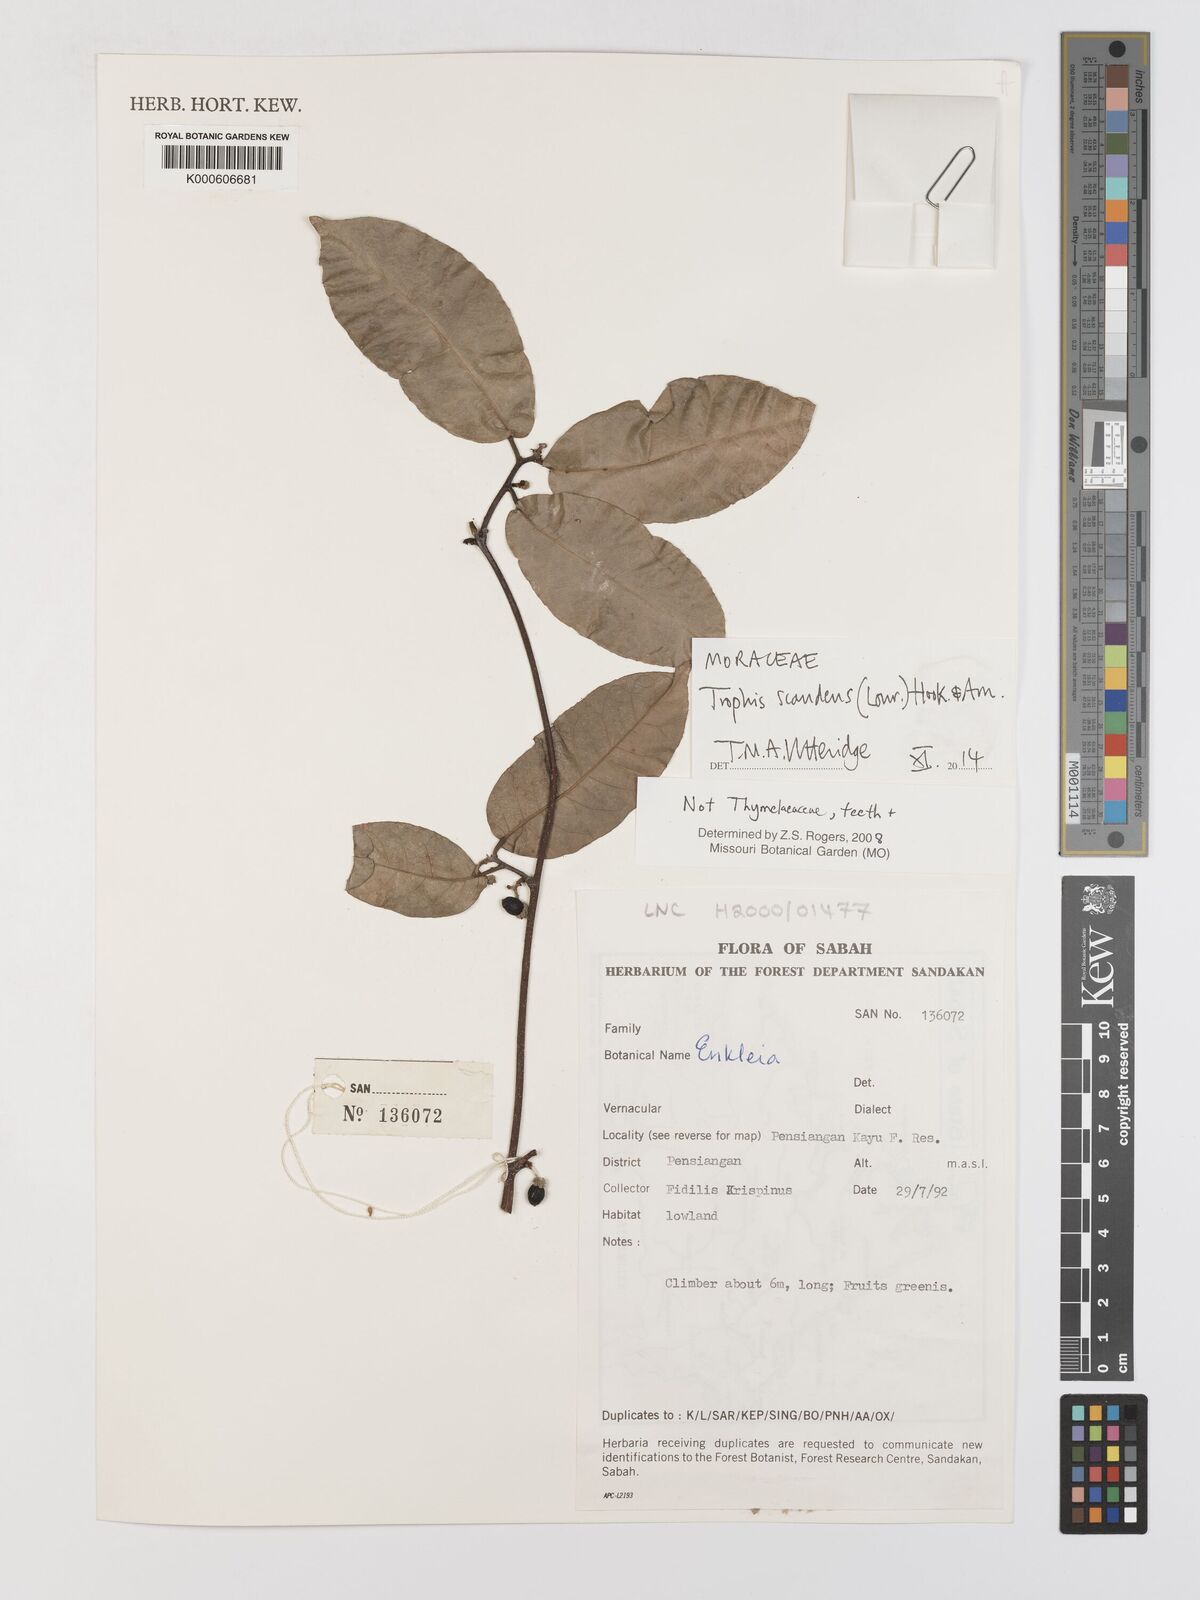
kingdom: Plantae
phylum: Tracheophyta
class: Magnoliopsida
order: Rosales
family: Moraceae
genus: Malaisia
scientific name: Malaisia scandens
